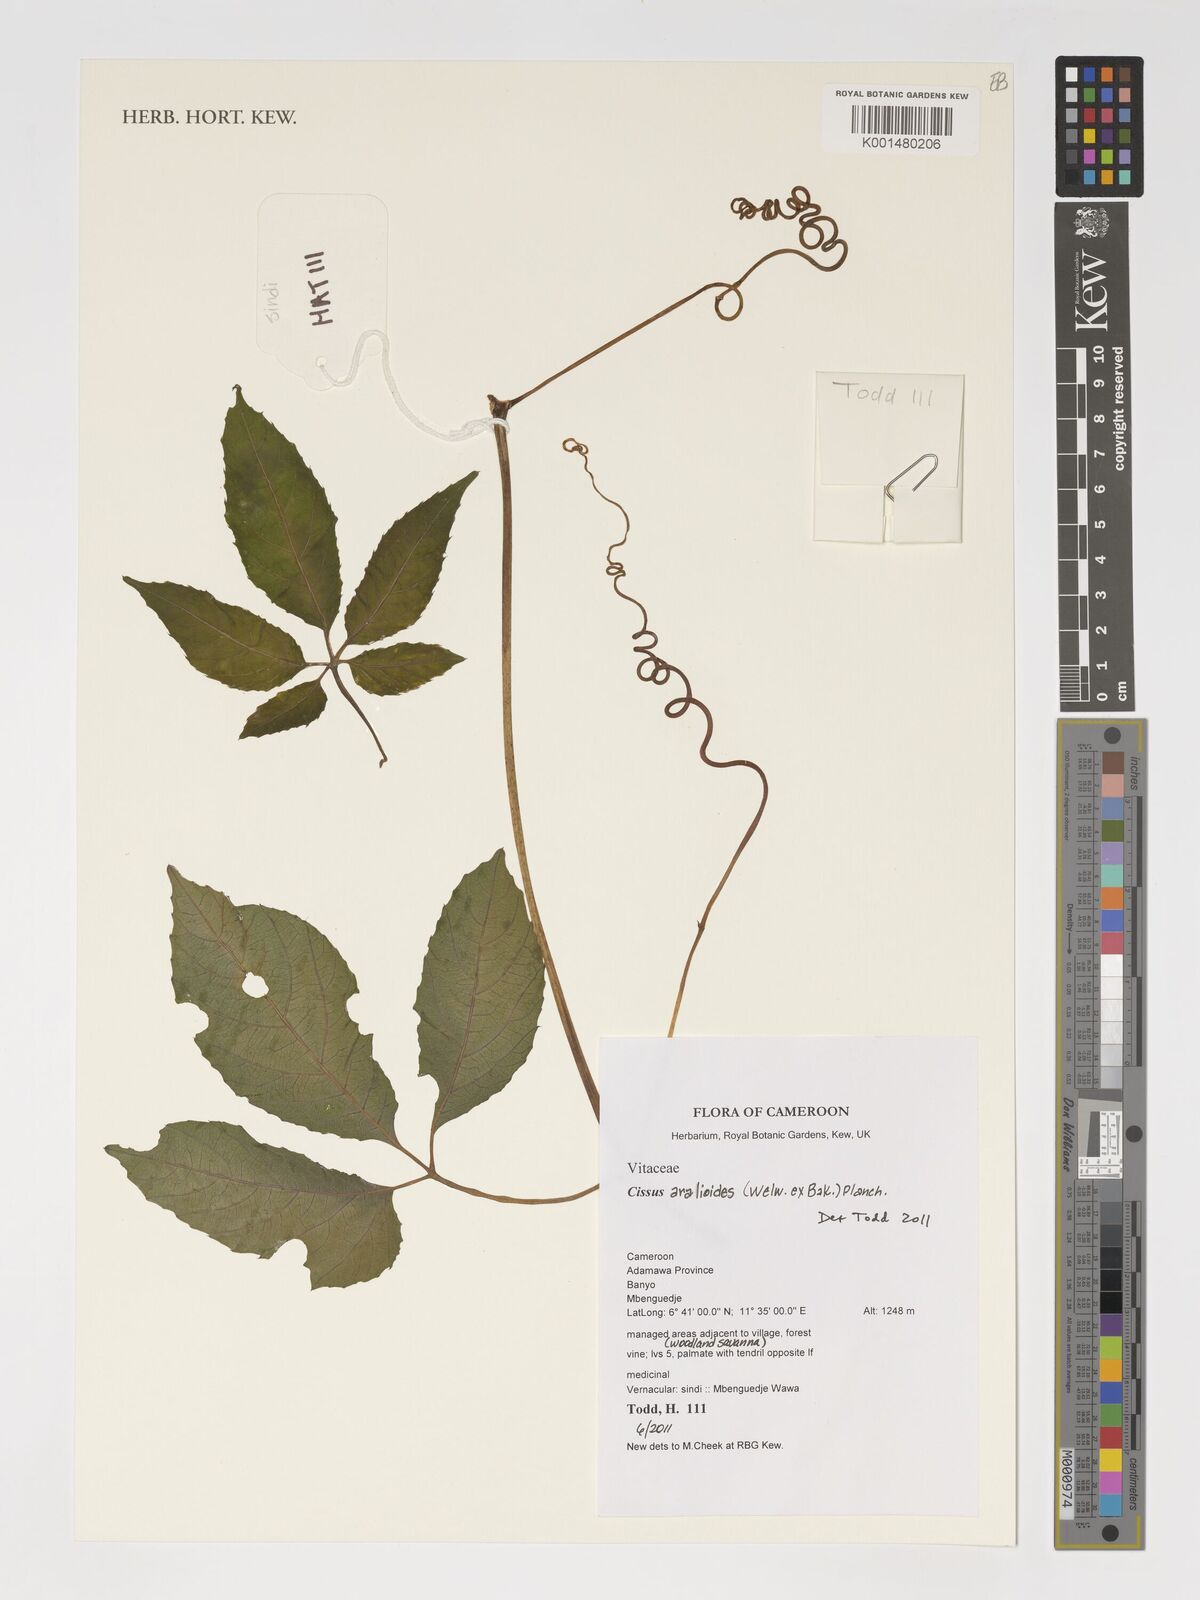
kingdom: Plantae
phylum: Tracheophyta
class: Magnoliopsida
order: Vitales
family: Vitaceae
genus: Cissus
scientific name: Cissus aralioides
